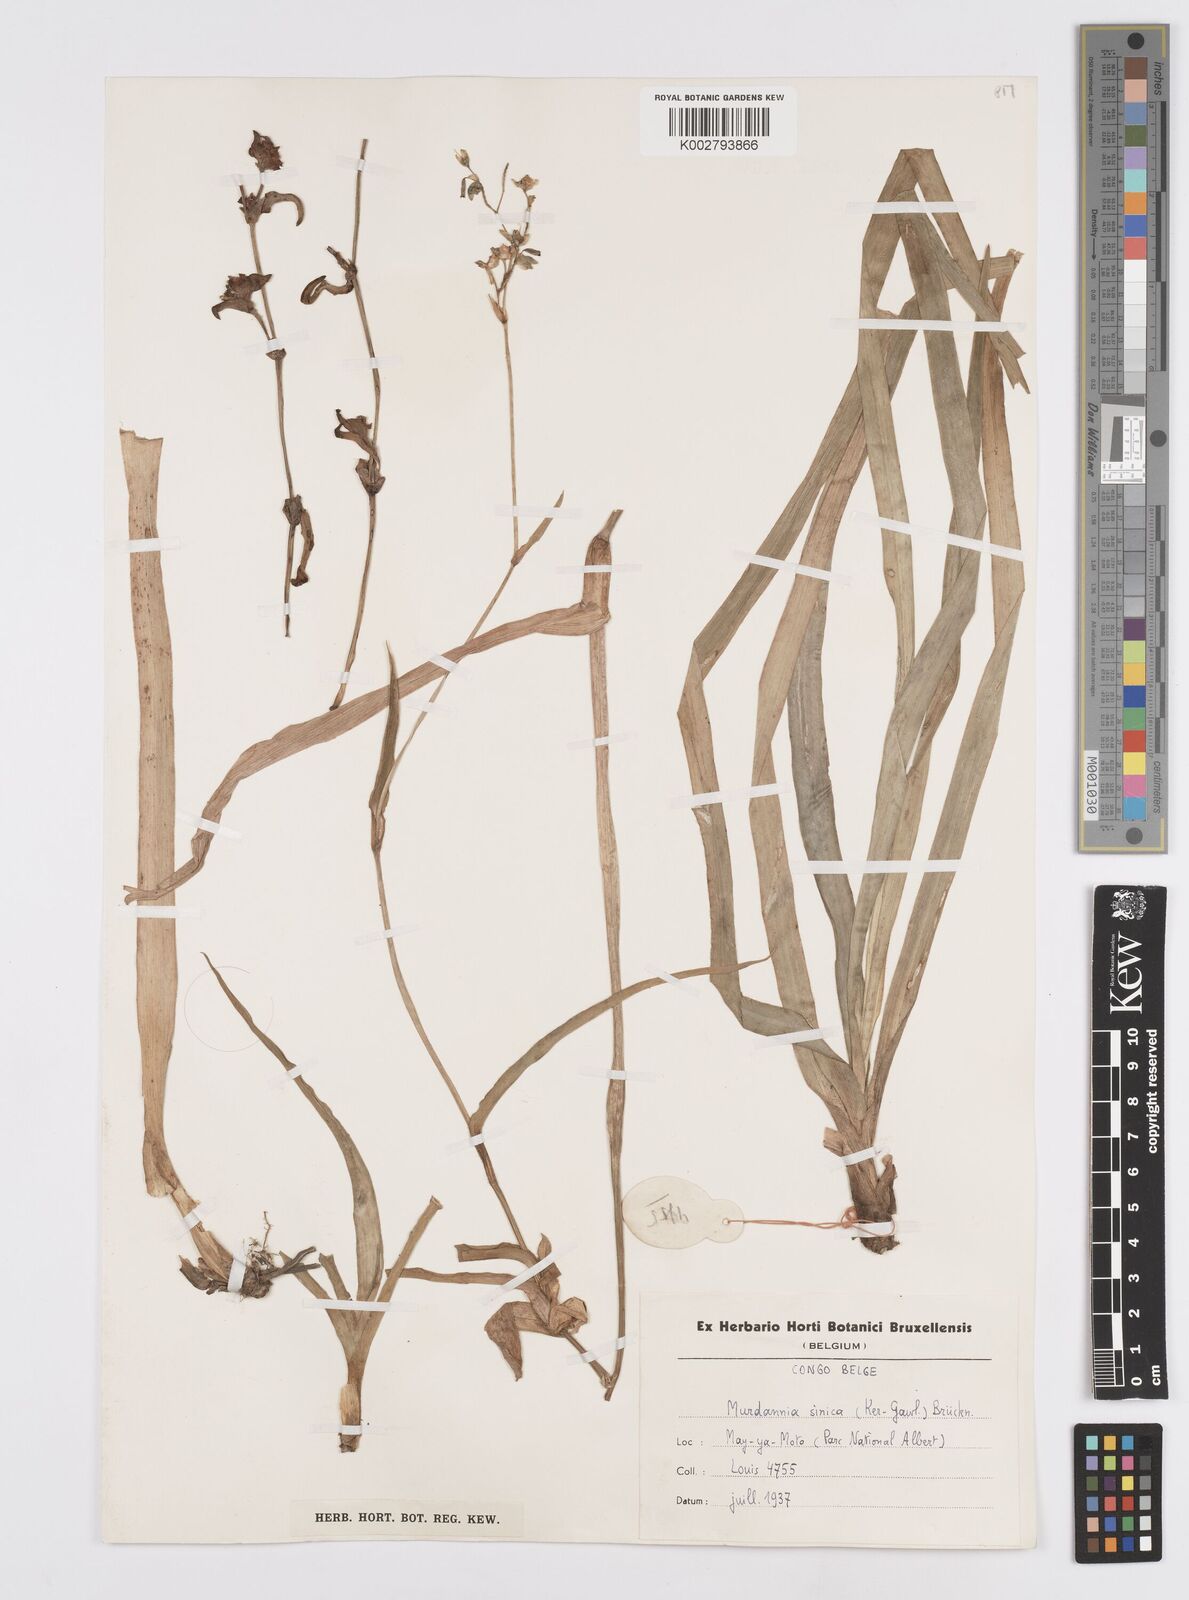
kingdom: Plantae
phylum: Tracheophyta
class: Liliopsida
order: Commelinales
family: Commelinaceae
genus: Murdannia
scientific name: Murdannia simplex
